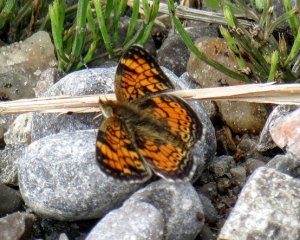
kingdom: Animalia
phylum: Arthropoda
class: Insecta
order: Lepidoptera
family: Nymphalidae
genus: Phyciodes
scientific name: Phyciodes tharos
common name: Pearl Crescent
